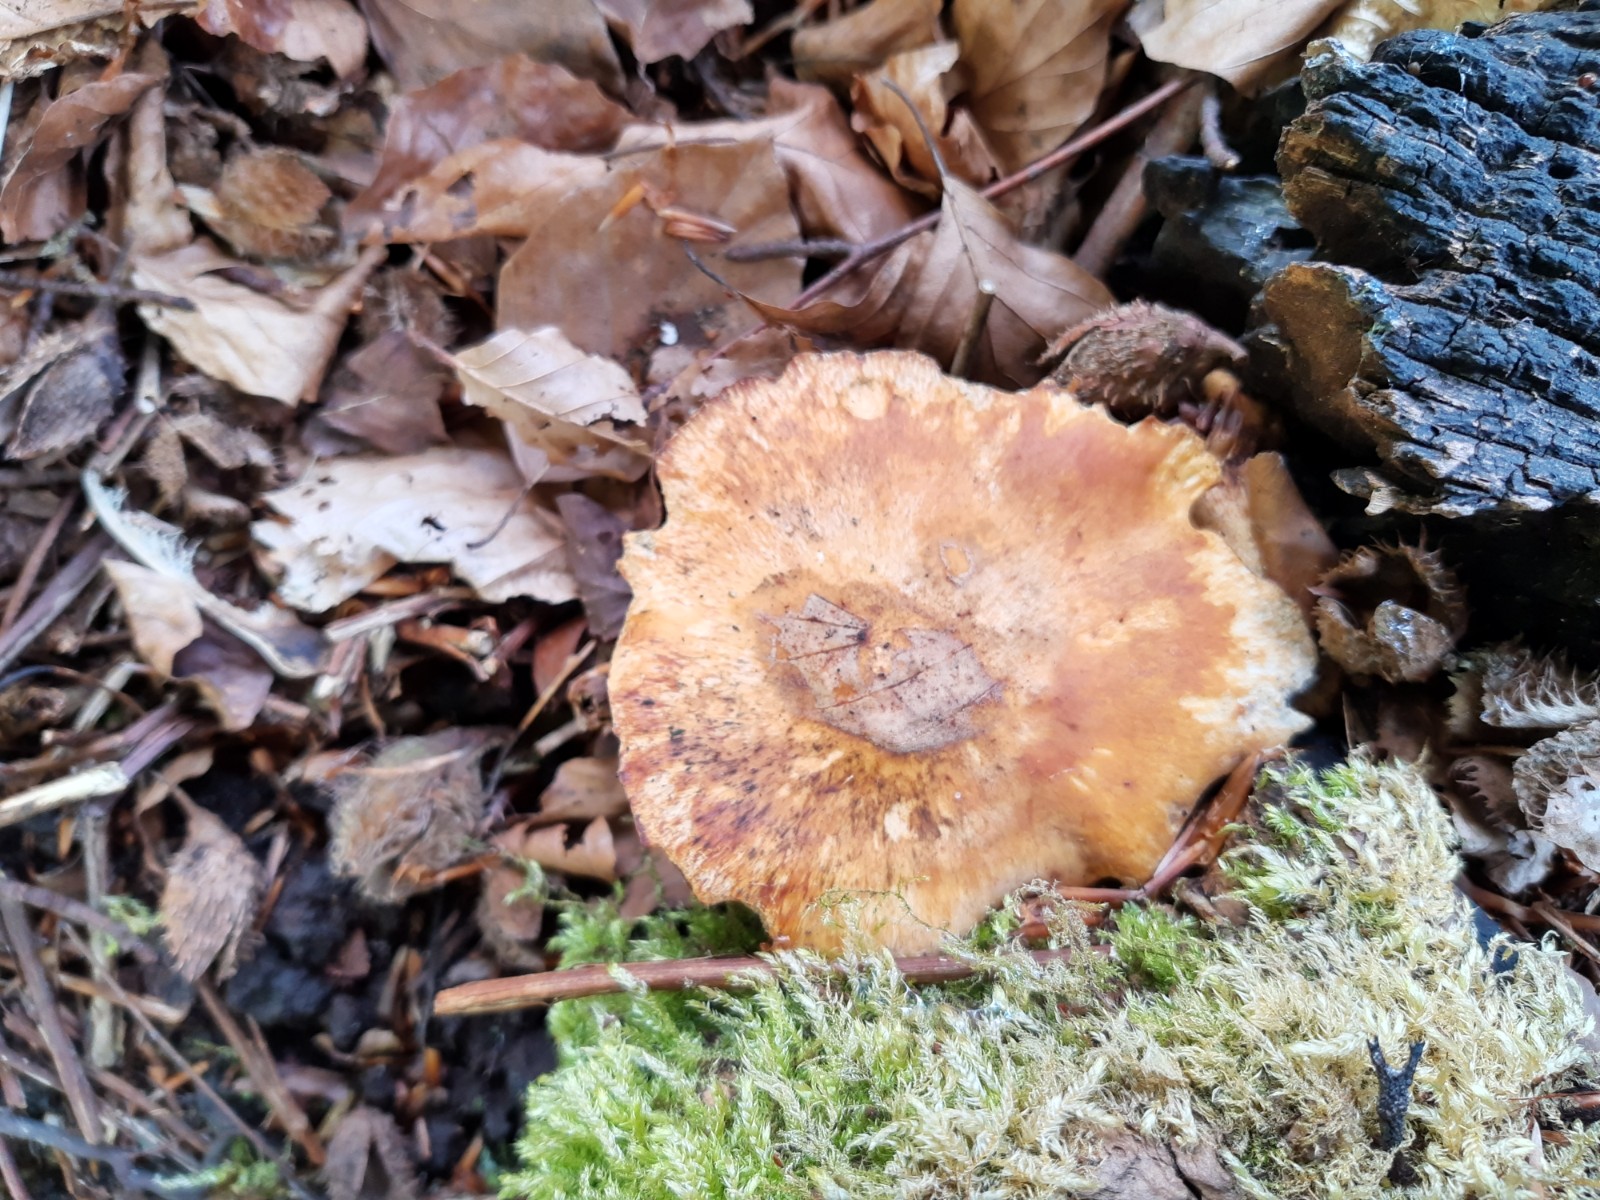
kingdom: Fungi
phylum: Basidiomycota
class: Agaricomycetes
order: Polyporales
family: Polyporaceae
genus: Cerioporus
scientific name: Cerioporus varius
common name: foranderlig stilkporesvamp
